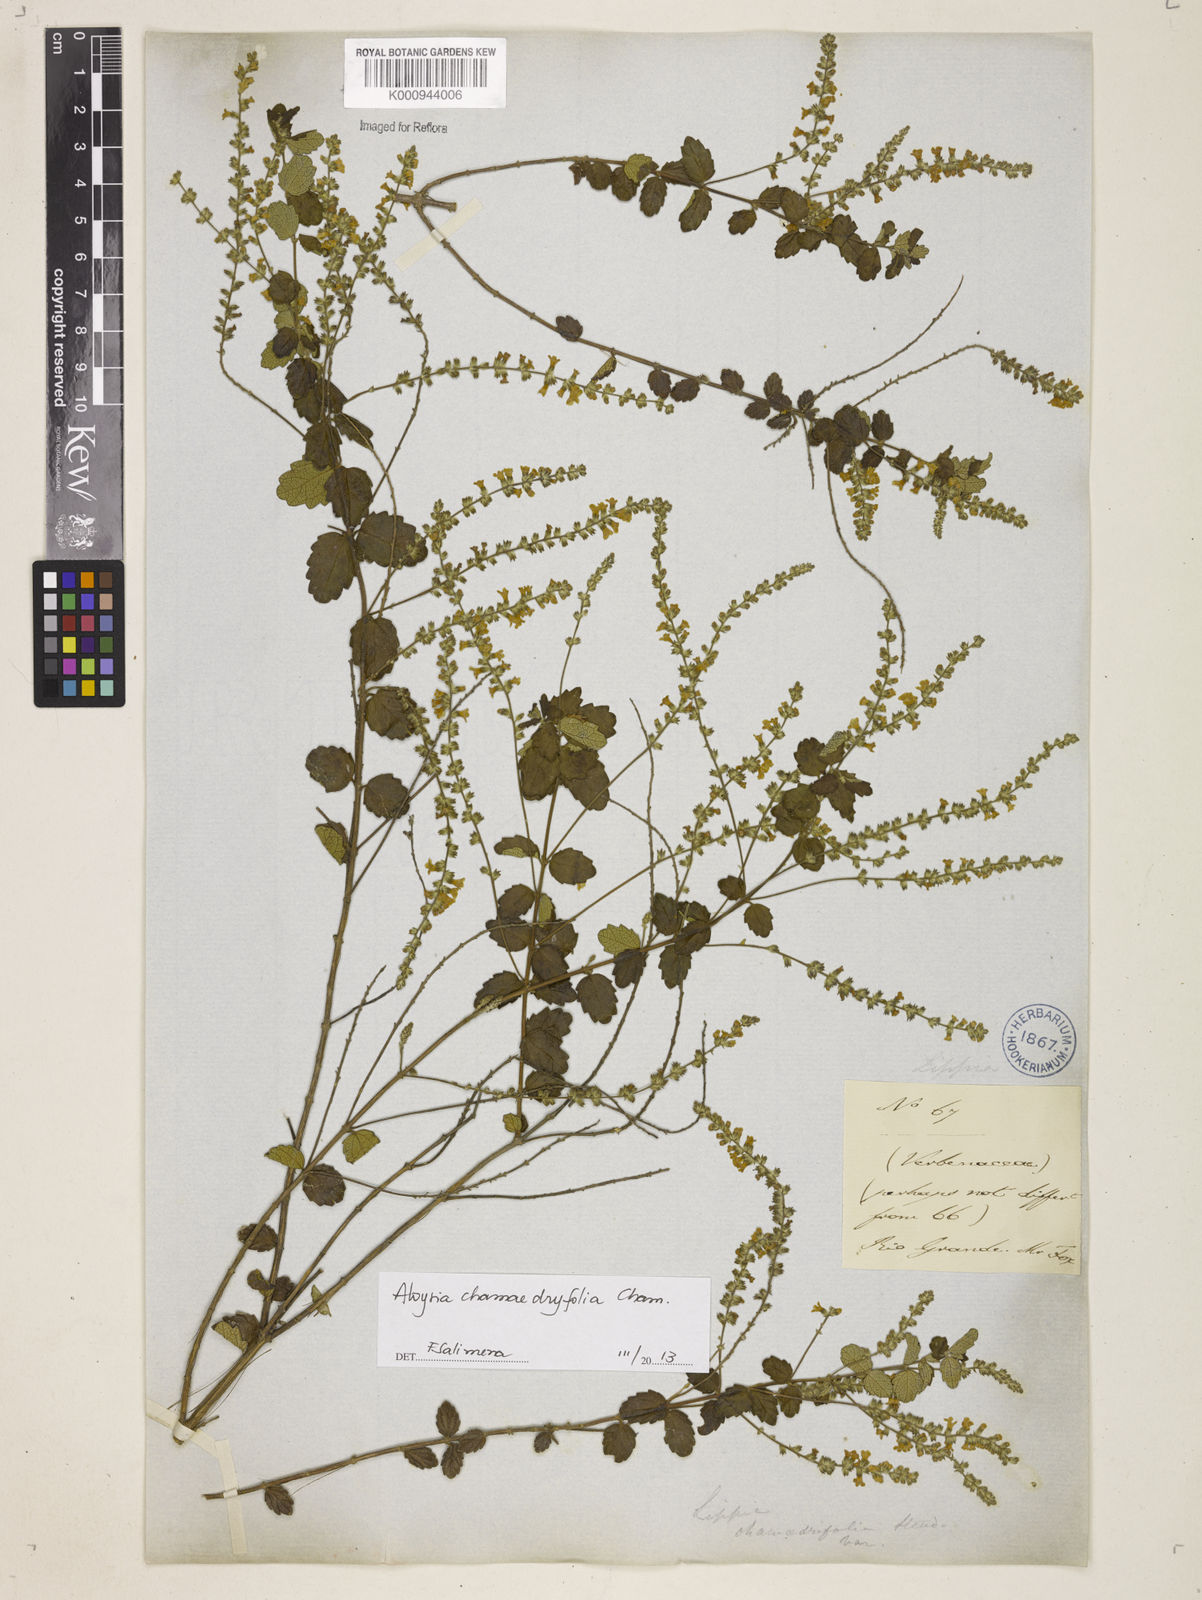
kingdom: Plantae
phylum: Tracheophyta
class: Magnoliopsida
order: Lamiales
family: Verbenaceae
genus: Aloysia
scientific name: Aloysia
